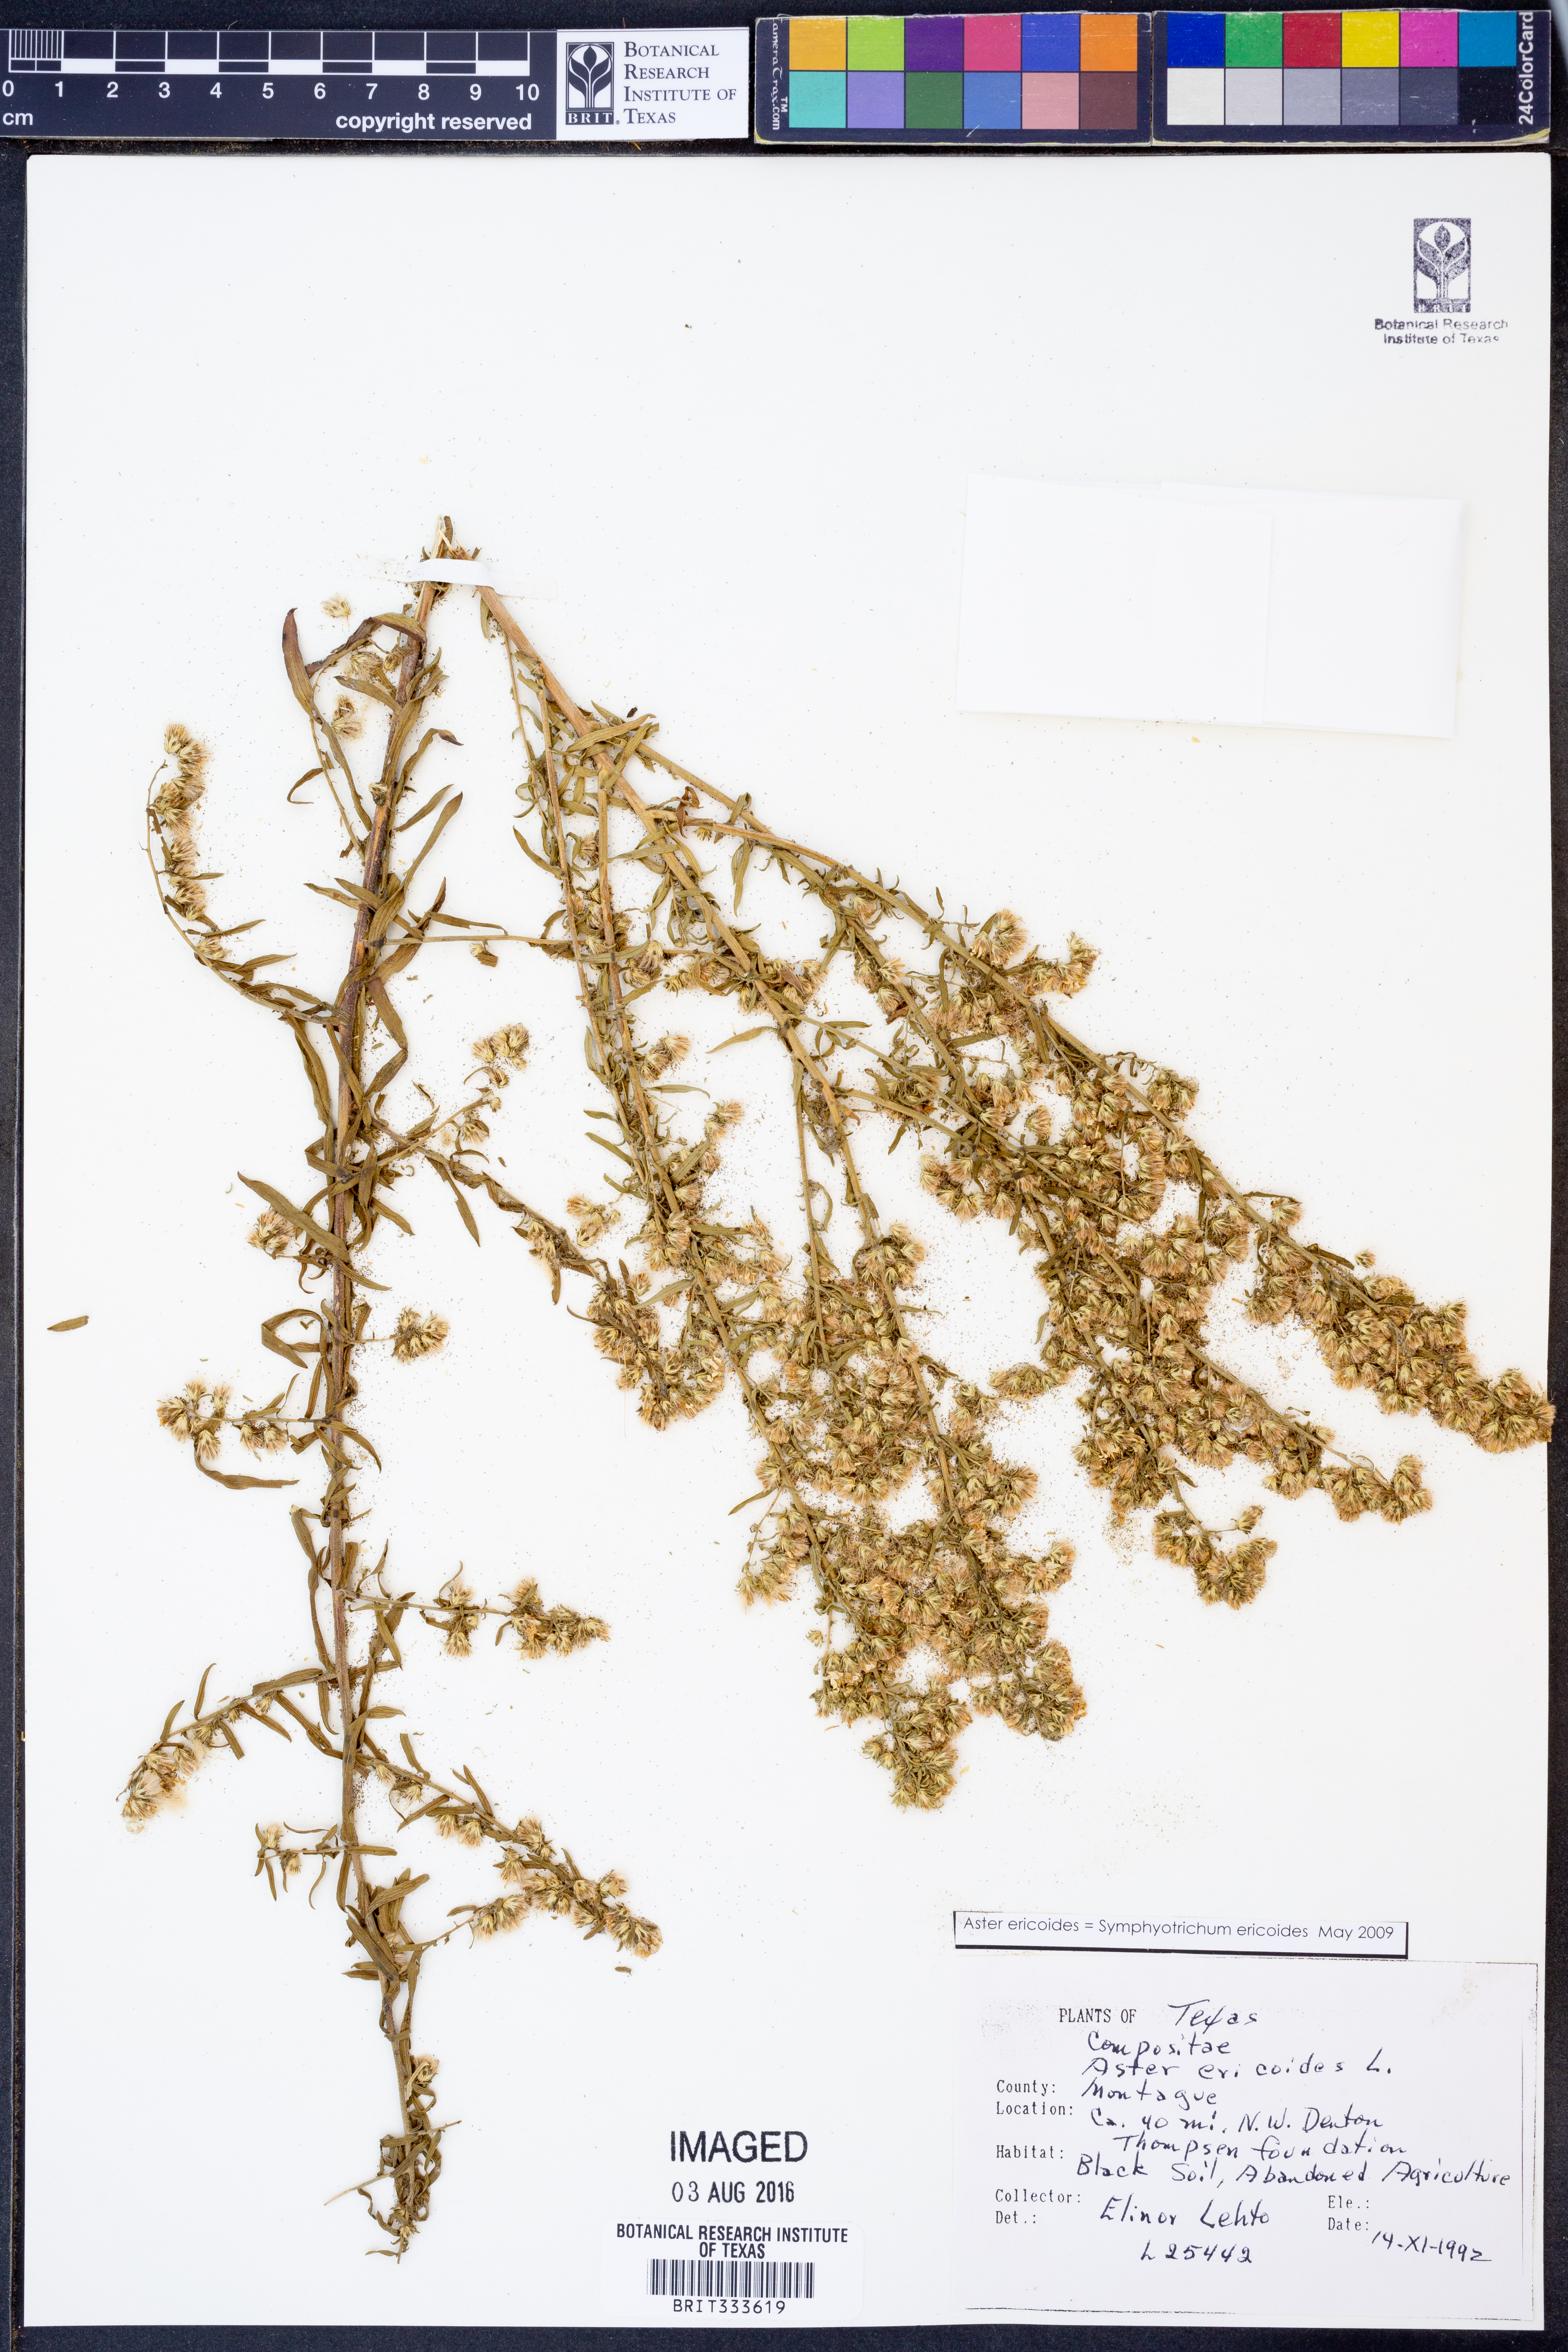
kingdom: Plantae
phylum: Tracheophyta
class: Magnoliopsida
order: Asterales
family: Asteraceae
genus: Symphyotrichum
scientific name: Symphyotrichum ericoides
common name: Heath aster
